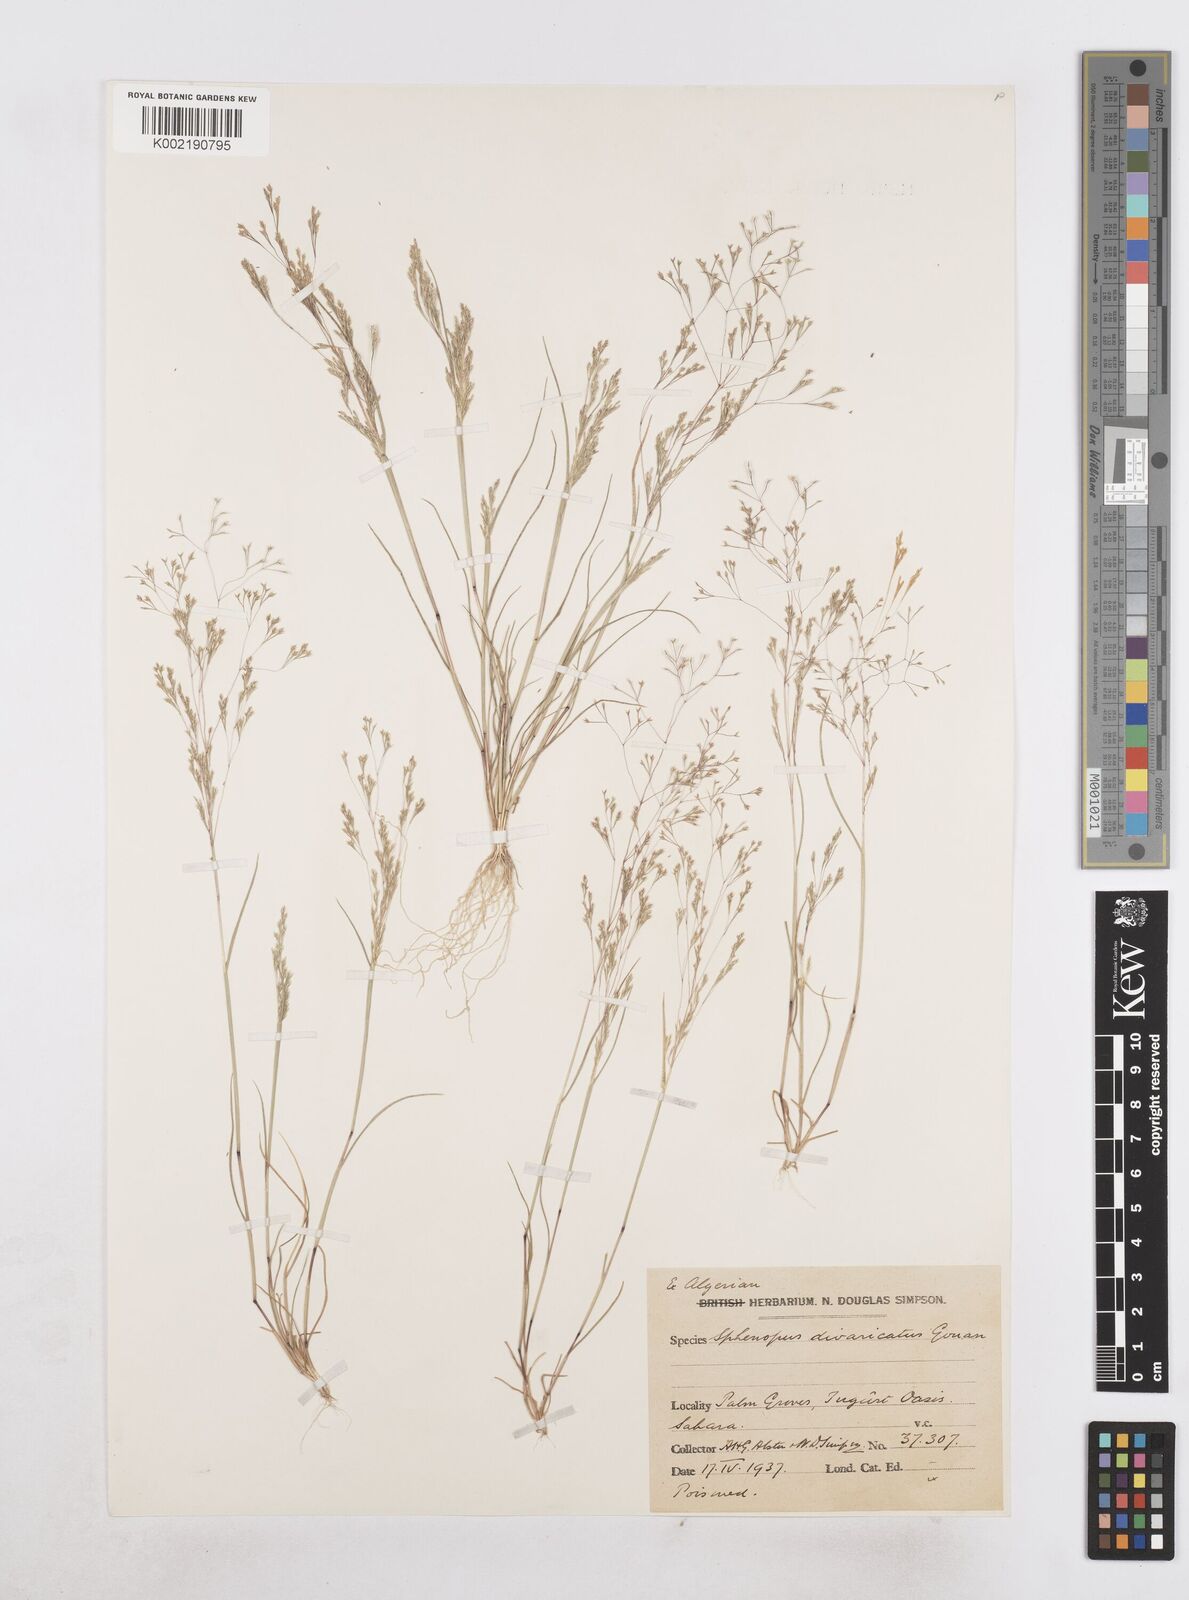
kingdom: Plantae
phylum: Tracheophyta
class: Liliopsida
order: Poales
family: Poaceae
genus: Sphenopus
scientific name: Sphenopus divaricatus
